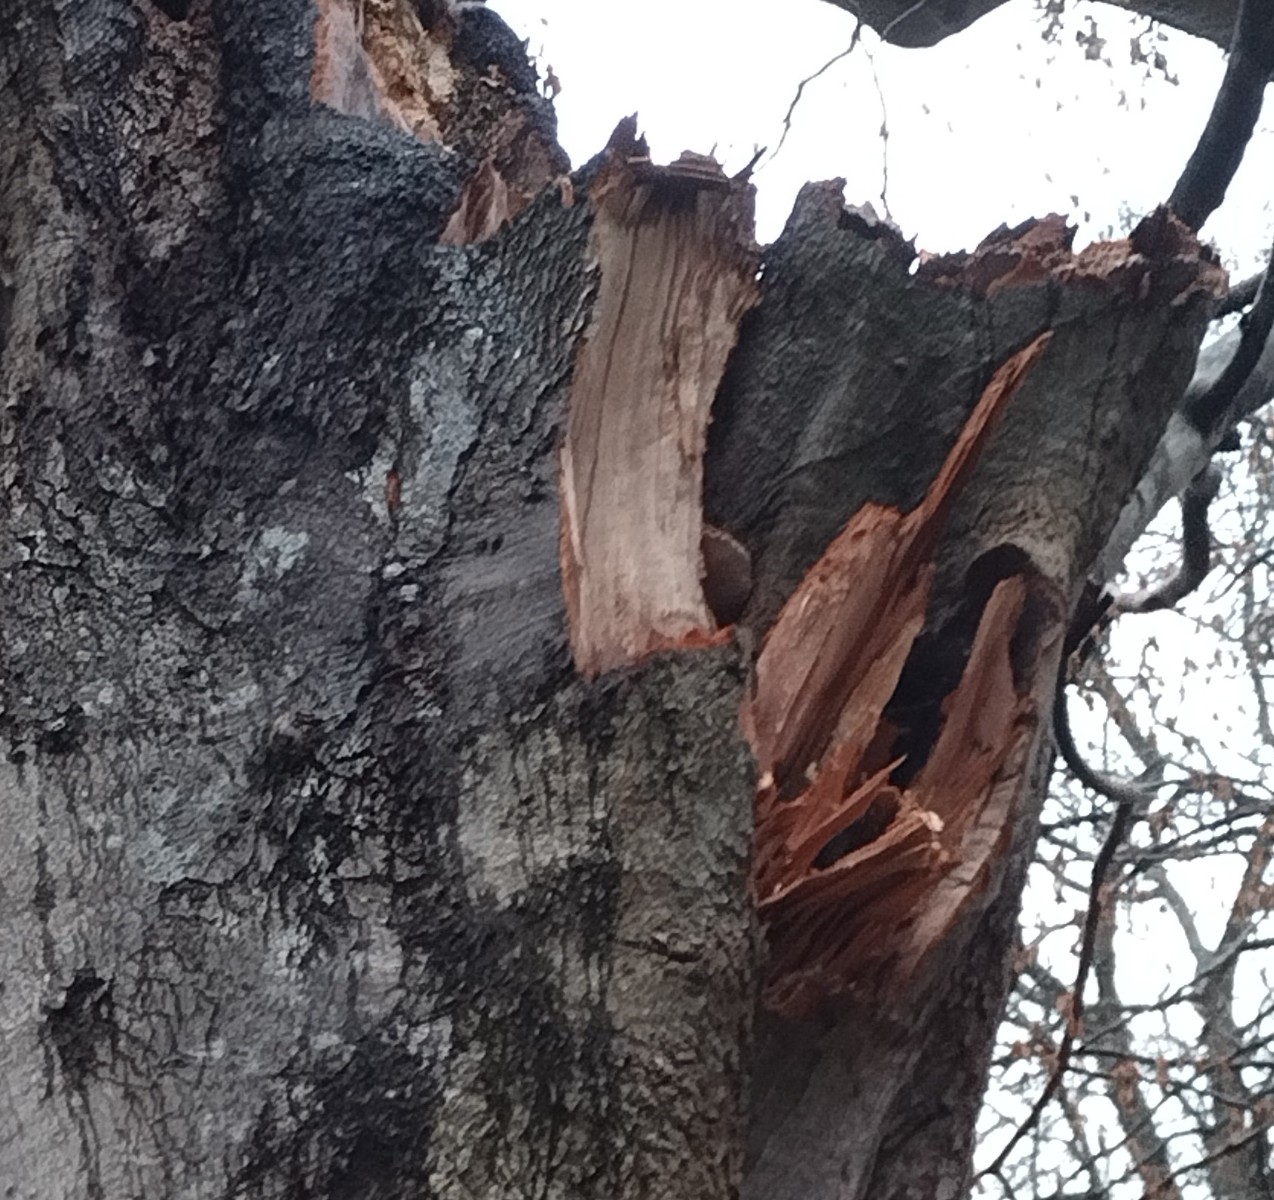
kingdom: Fungi
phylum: Basidiomycota
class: Agaricomycetes
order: Polyporales
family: Polyporaceae
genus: Ganoderma
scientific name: Ganoderma adspersum
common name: grov lakporesvamp
